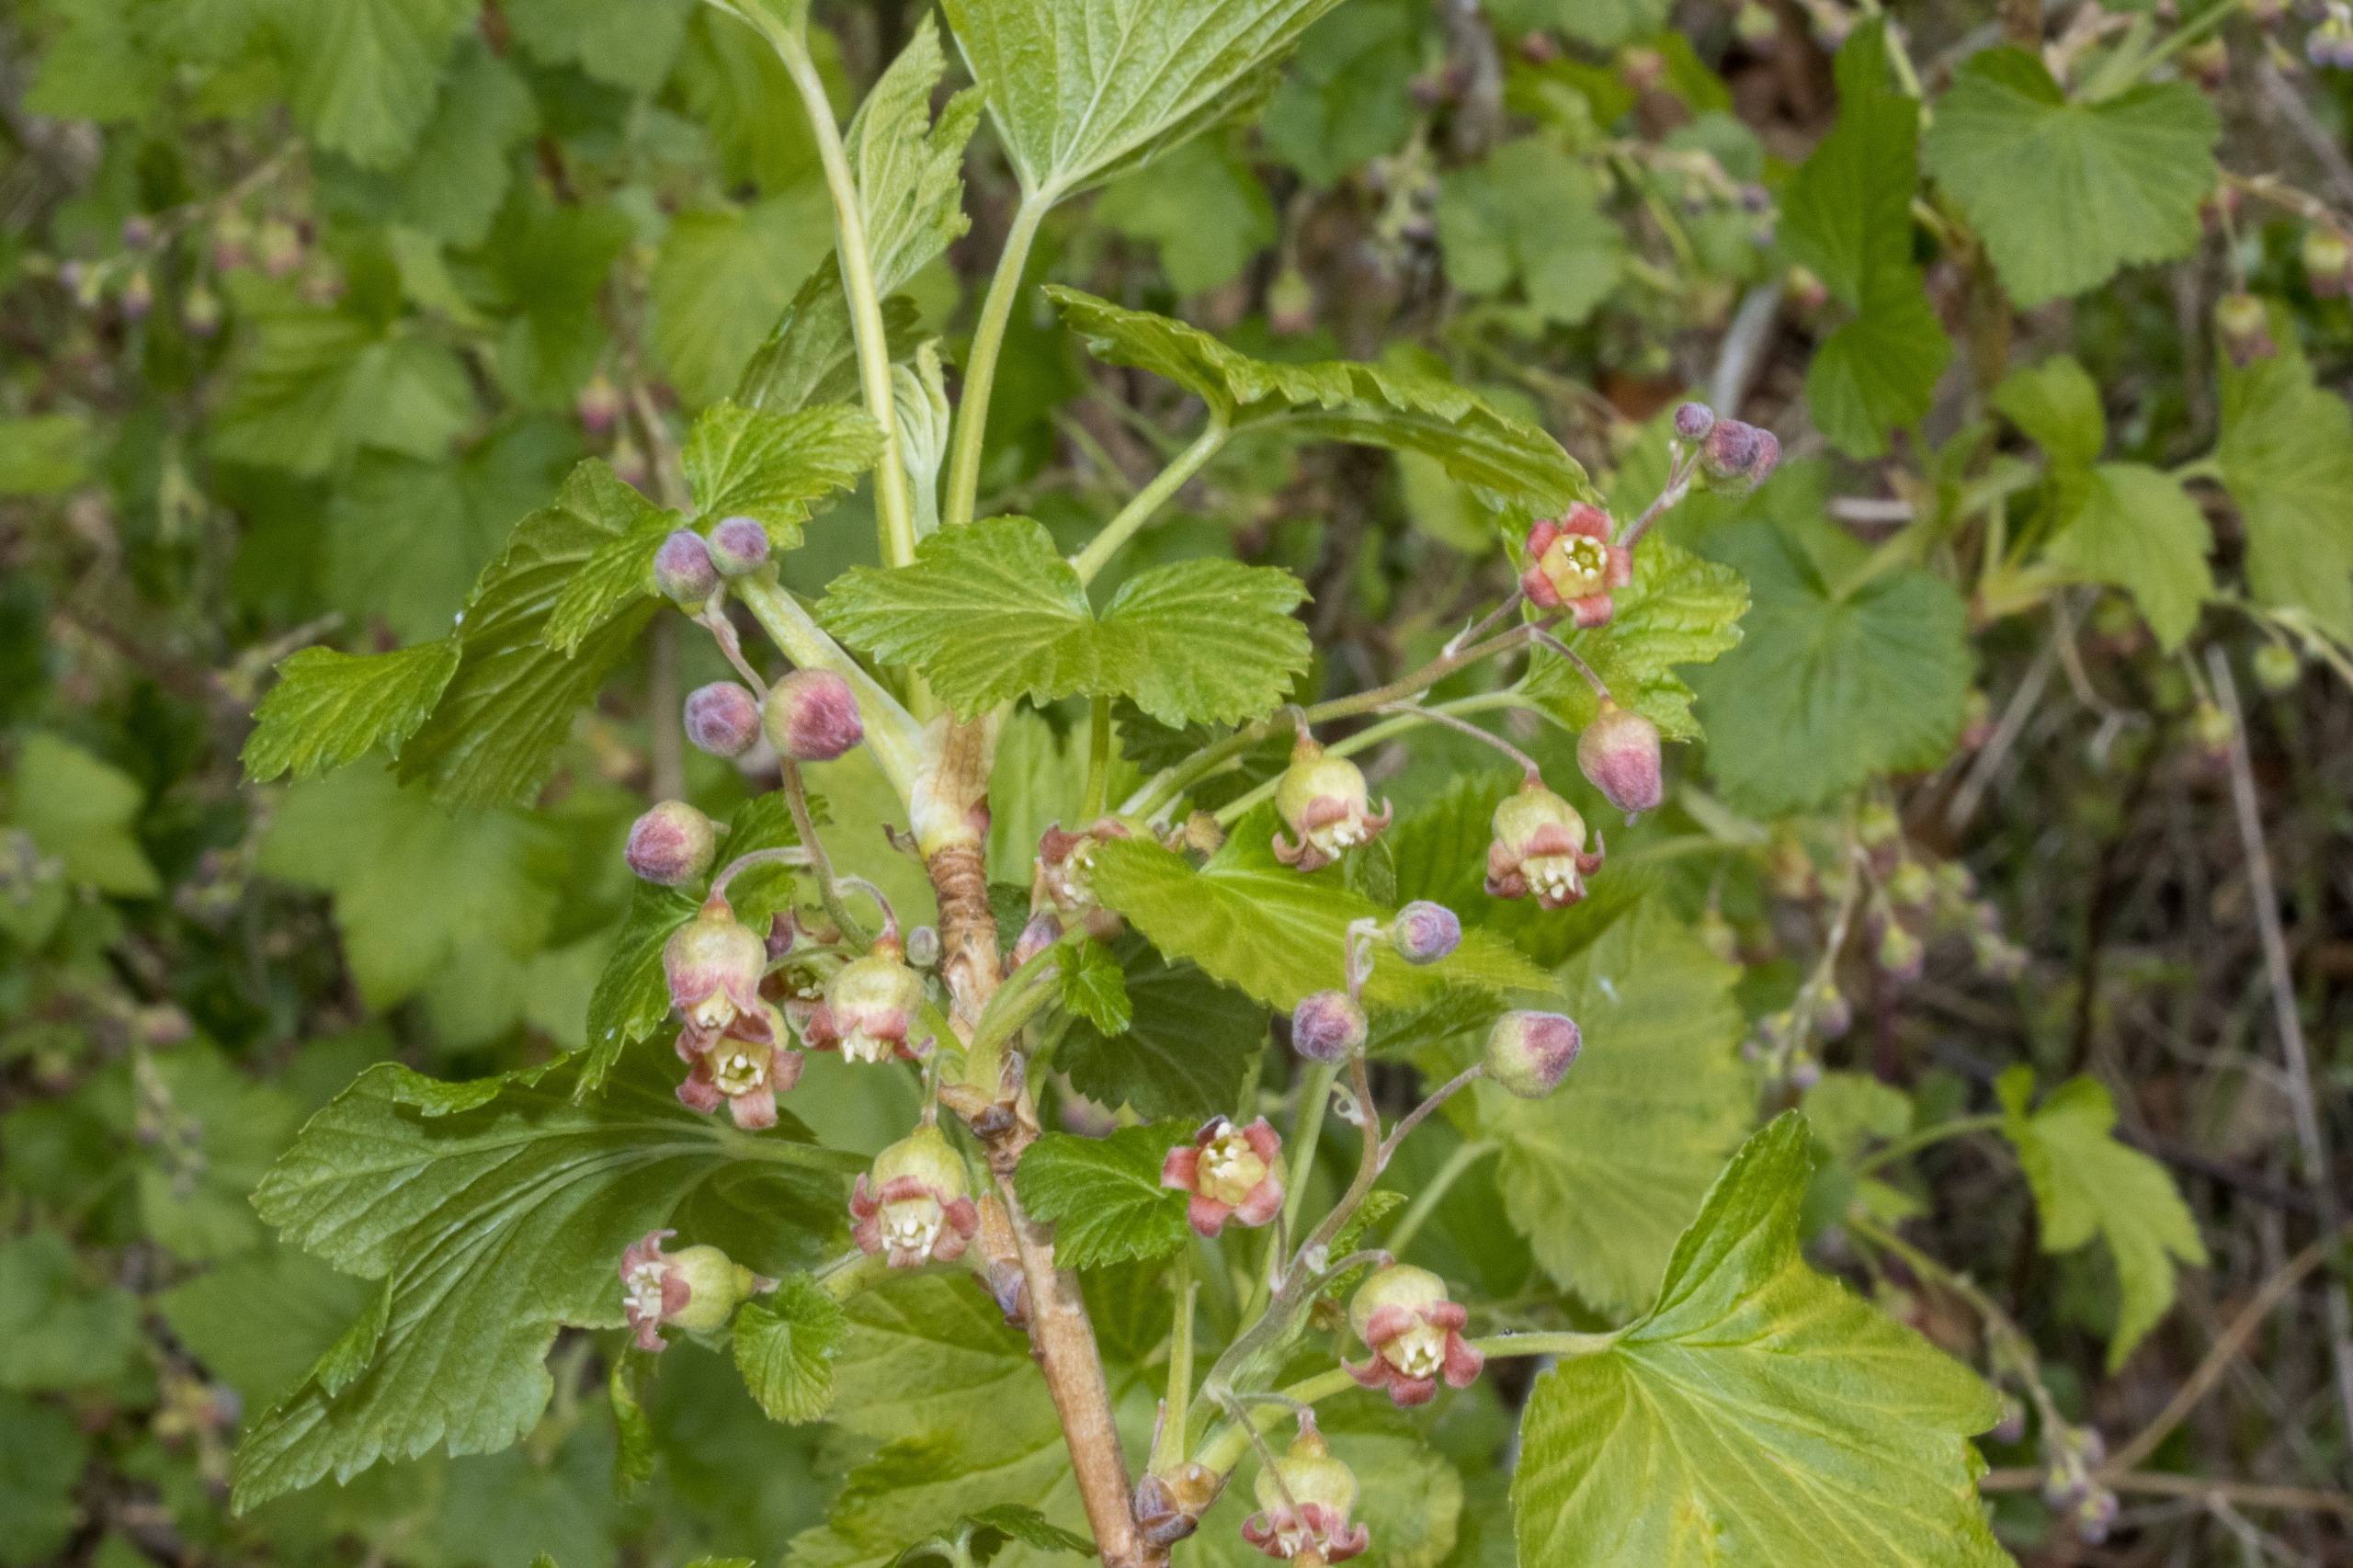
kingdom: Plantae
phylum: Tracheophyta
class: Magnoliopsida
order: Saxifragales
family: Grossulariaceae
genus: Ribes
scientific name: Ribes nigrum
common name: Solbær
